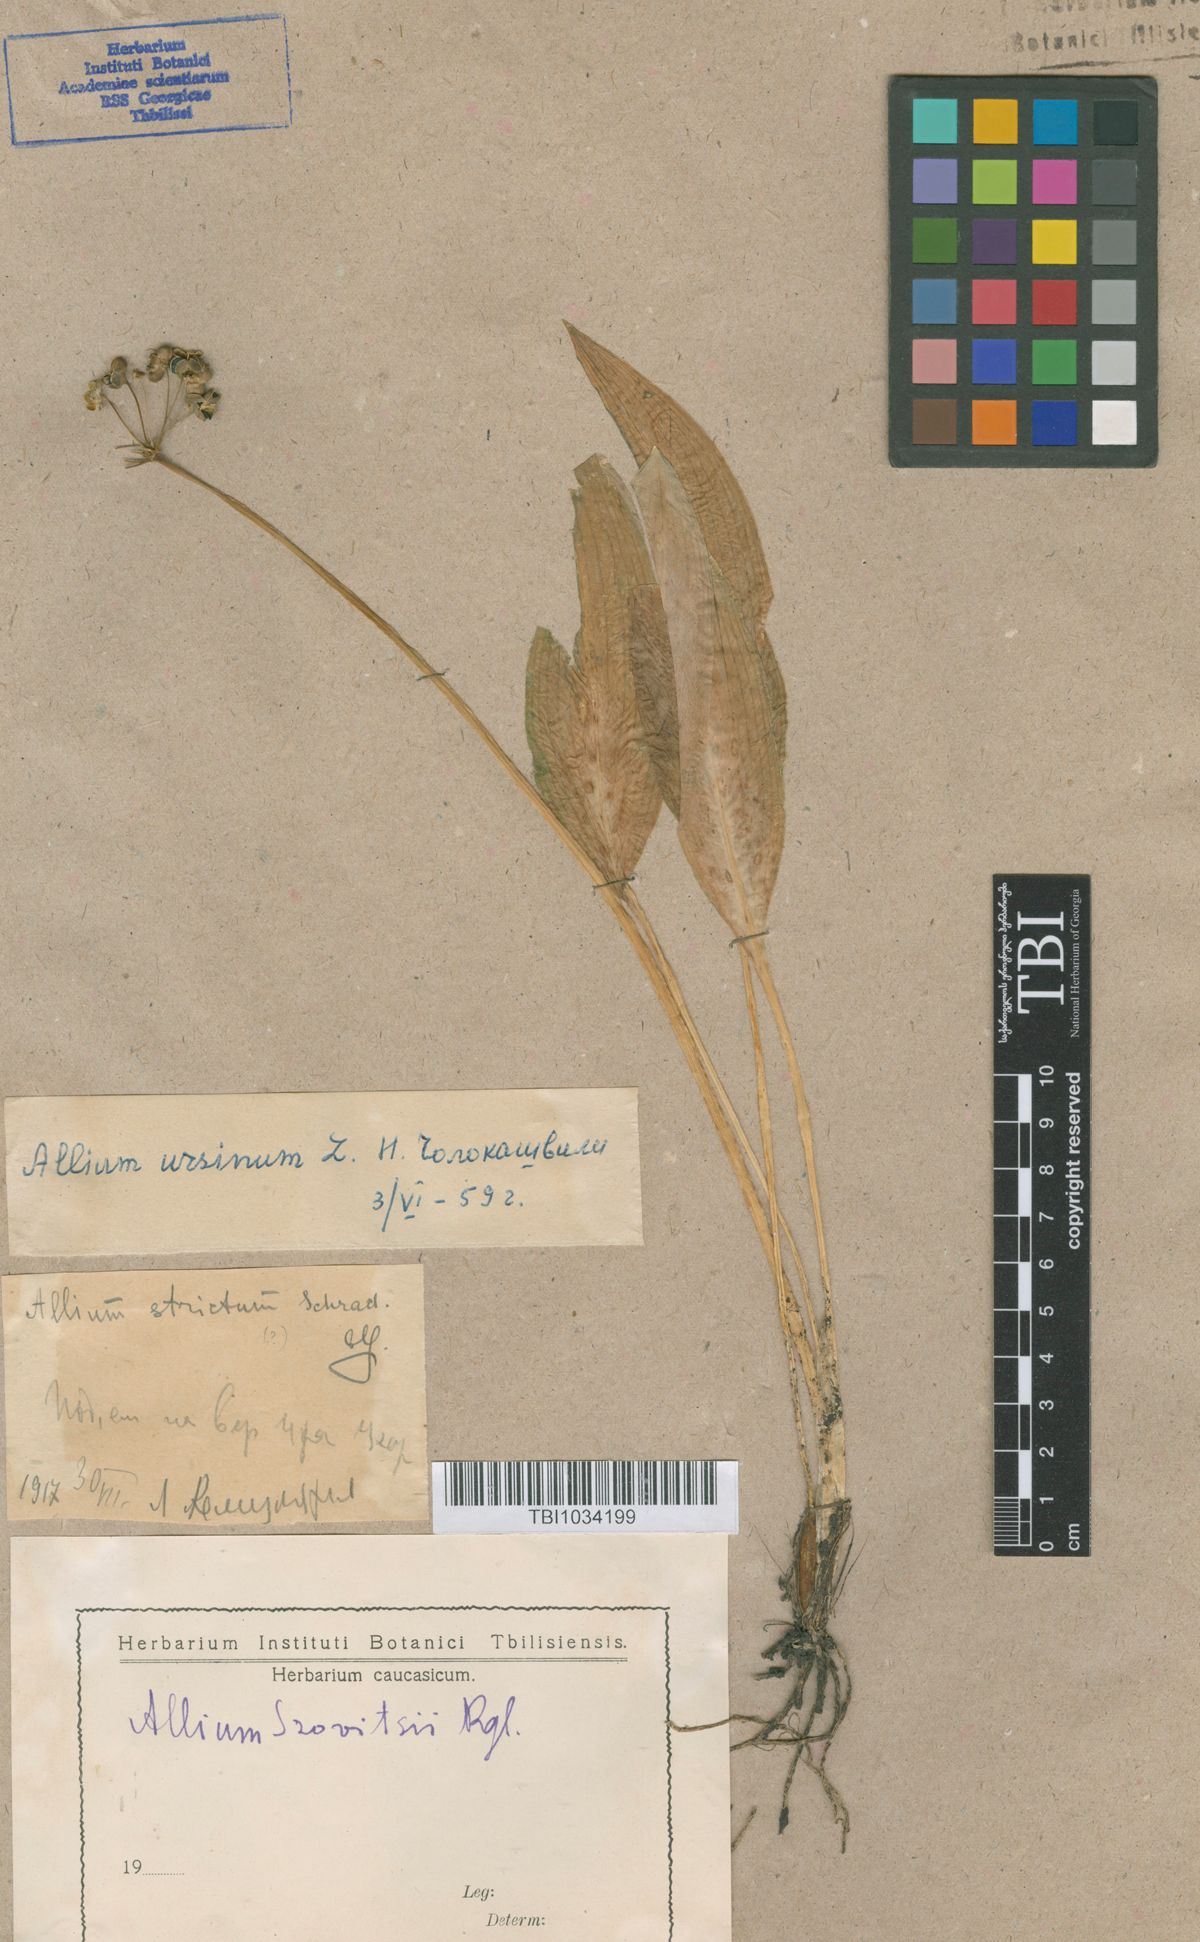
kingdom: Plantae
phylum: Tracheophyta
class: Liliopsida
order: Asparagales
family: Amaryllidaceae
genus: Allium
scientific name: Allium ursinum
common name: Ramsons
